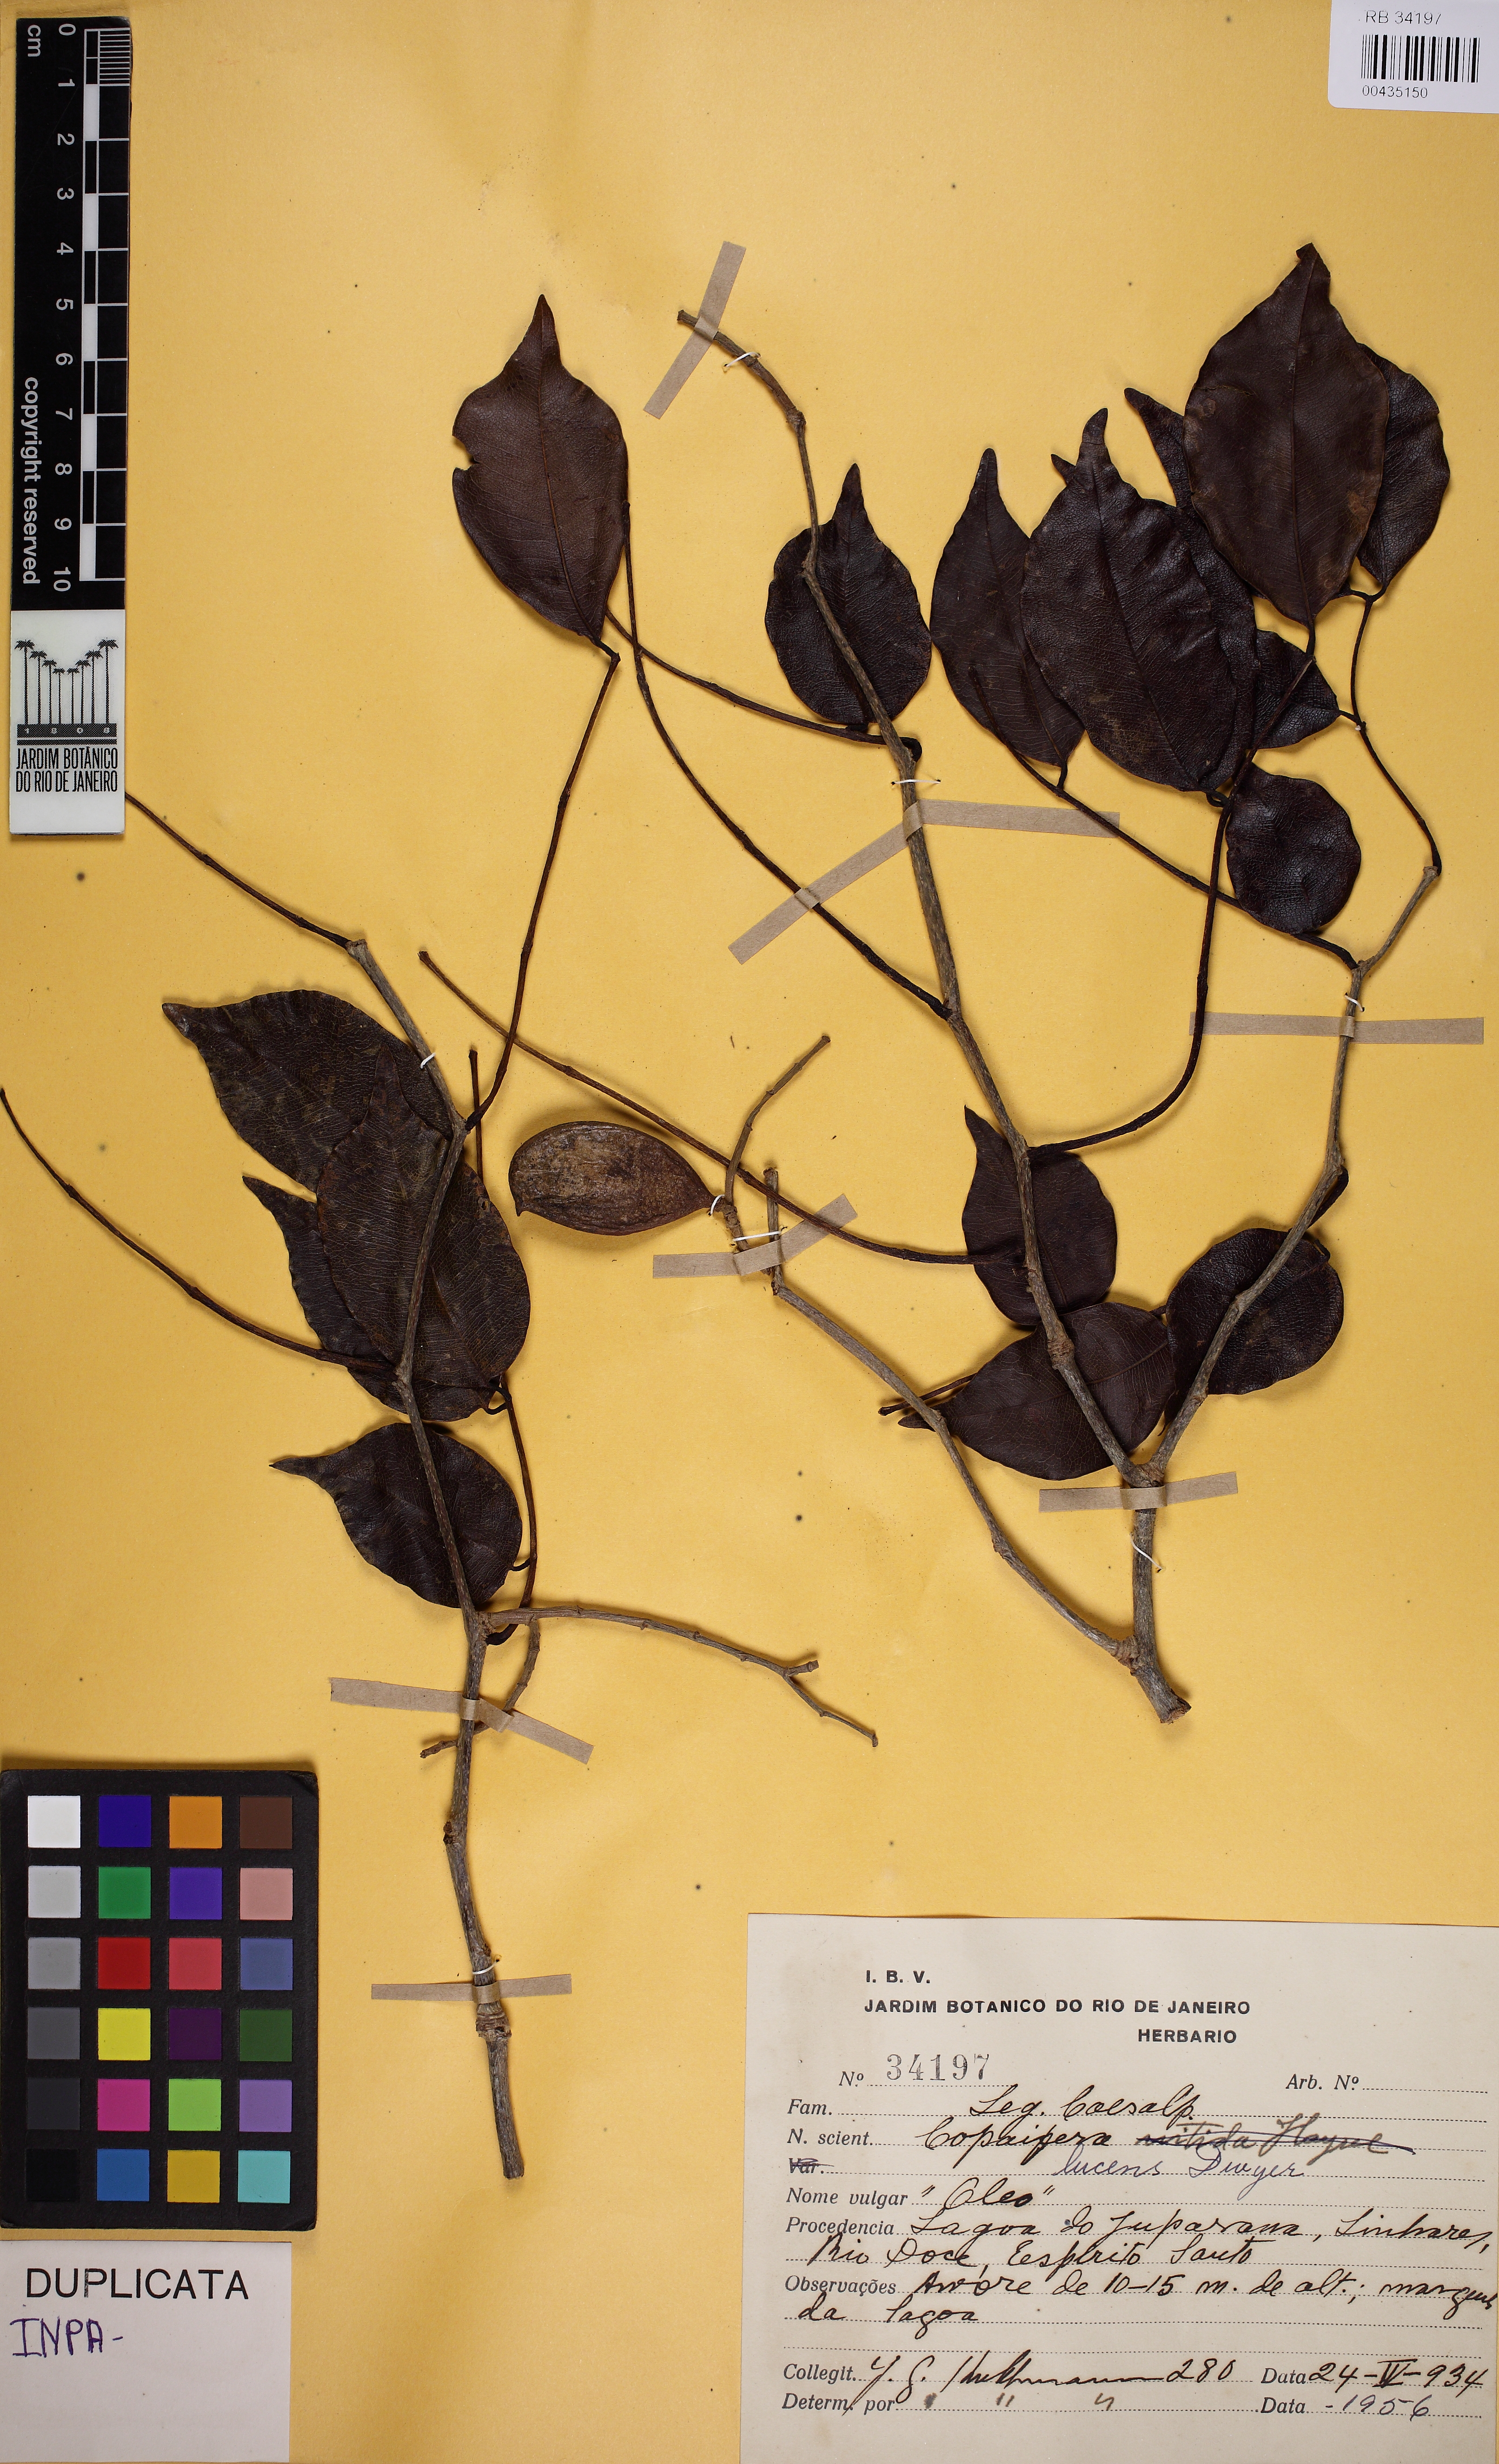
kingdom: Plantae
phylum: Tracheophyta
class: Magnoliopsida
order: Fabales
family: Fabaceae
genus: Copaifera
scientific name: Copaifera lucens
